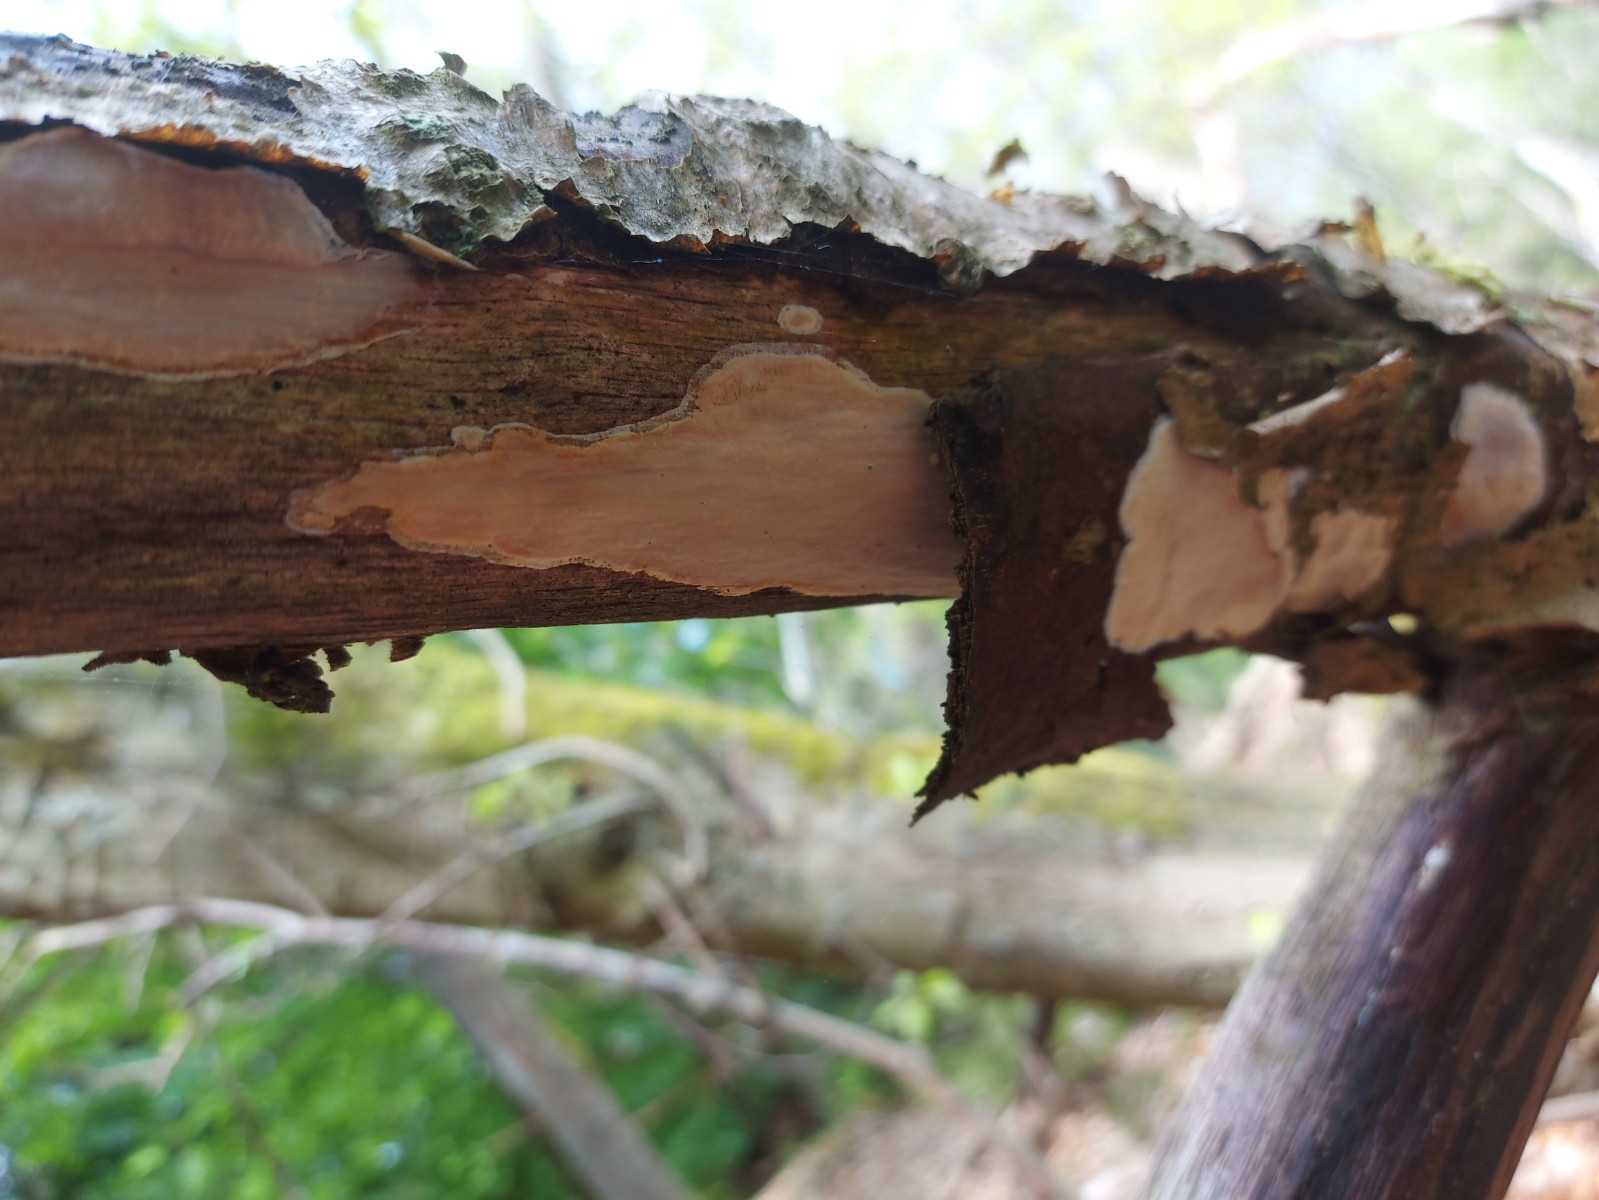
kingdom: Fungi
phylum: Basidiomycota
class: Agaricomycetes
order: Russulales
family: Peniophoraceae
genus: Scytinostroma
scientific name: Scytinostroma hemidichophyticum
